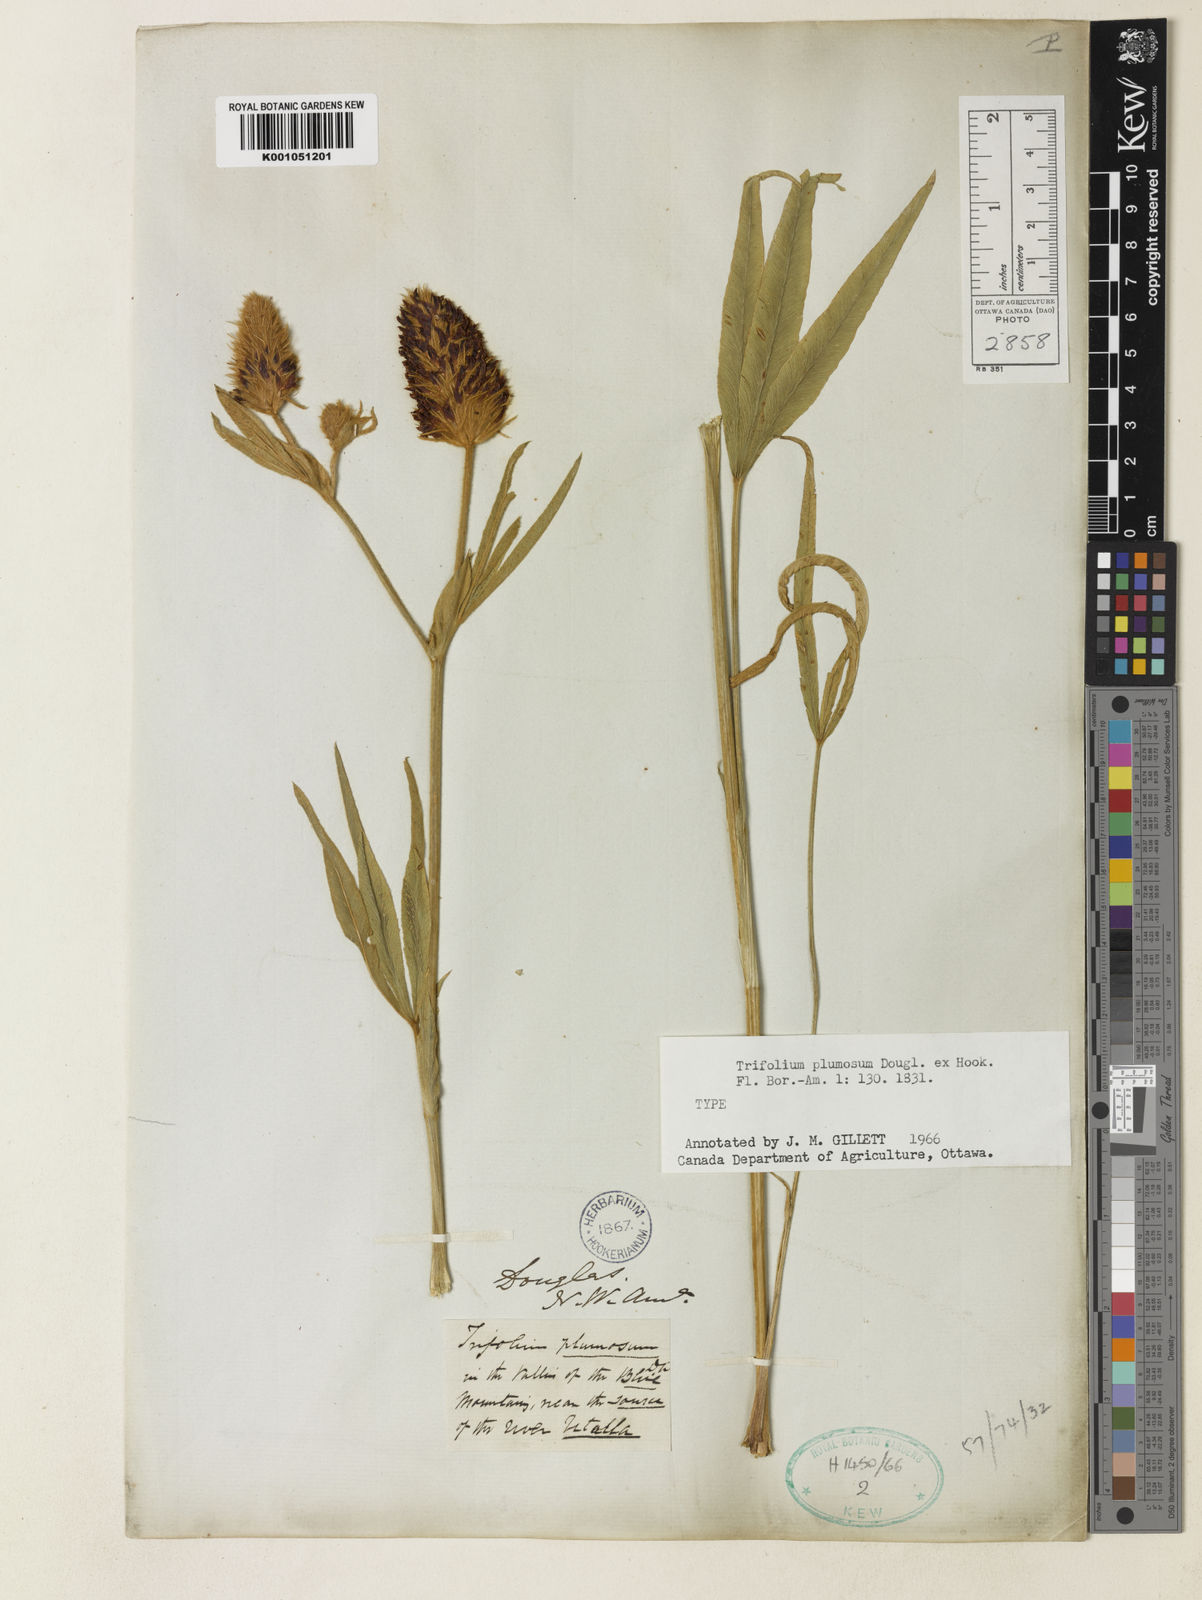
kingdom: Plantae
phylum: Tracheophyta
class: Magnoliopsida
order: Fabales
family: Fabaceae
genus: Trifolium
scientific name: Trifolium plumosum
